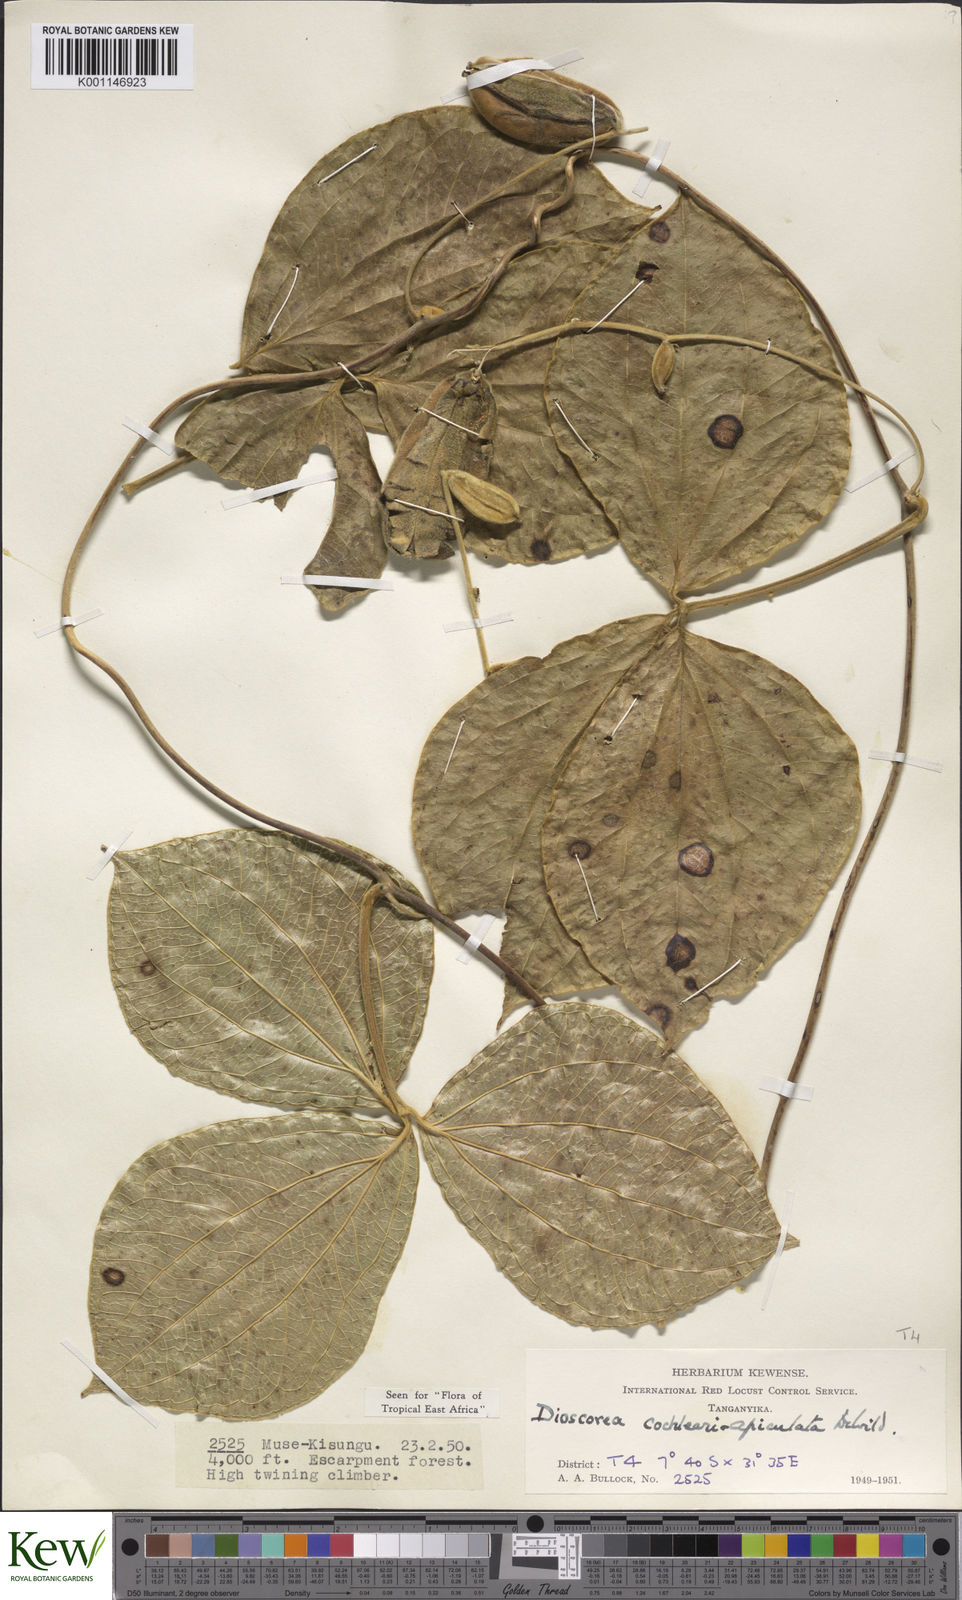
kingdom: Plantae
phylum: Tracheophyta
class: Liliopsida
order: Dioscoreales
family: Dioscoreaceae
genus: Dioscorea
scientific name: Dioscorea cochleariapiculata
